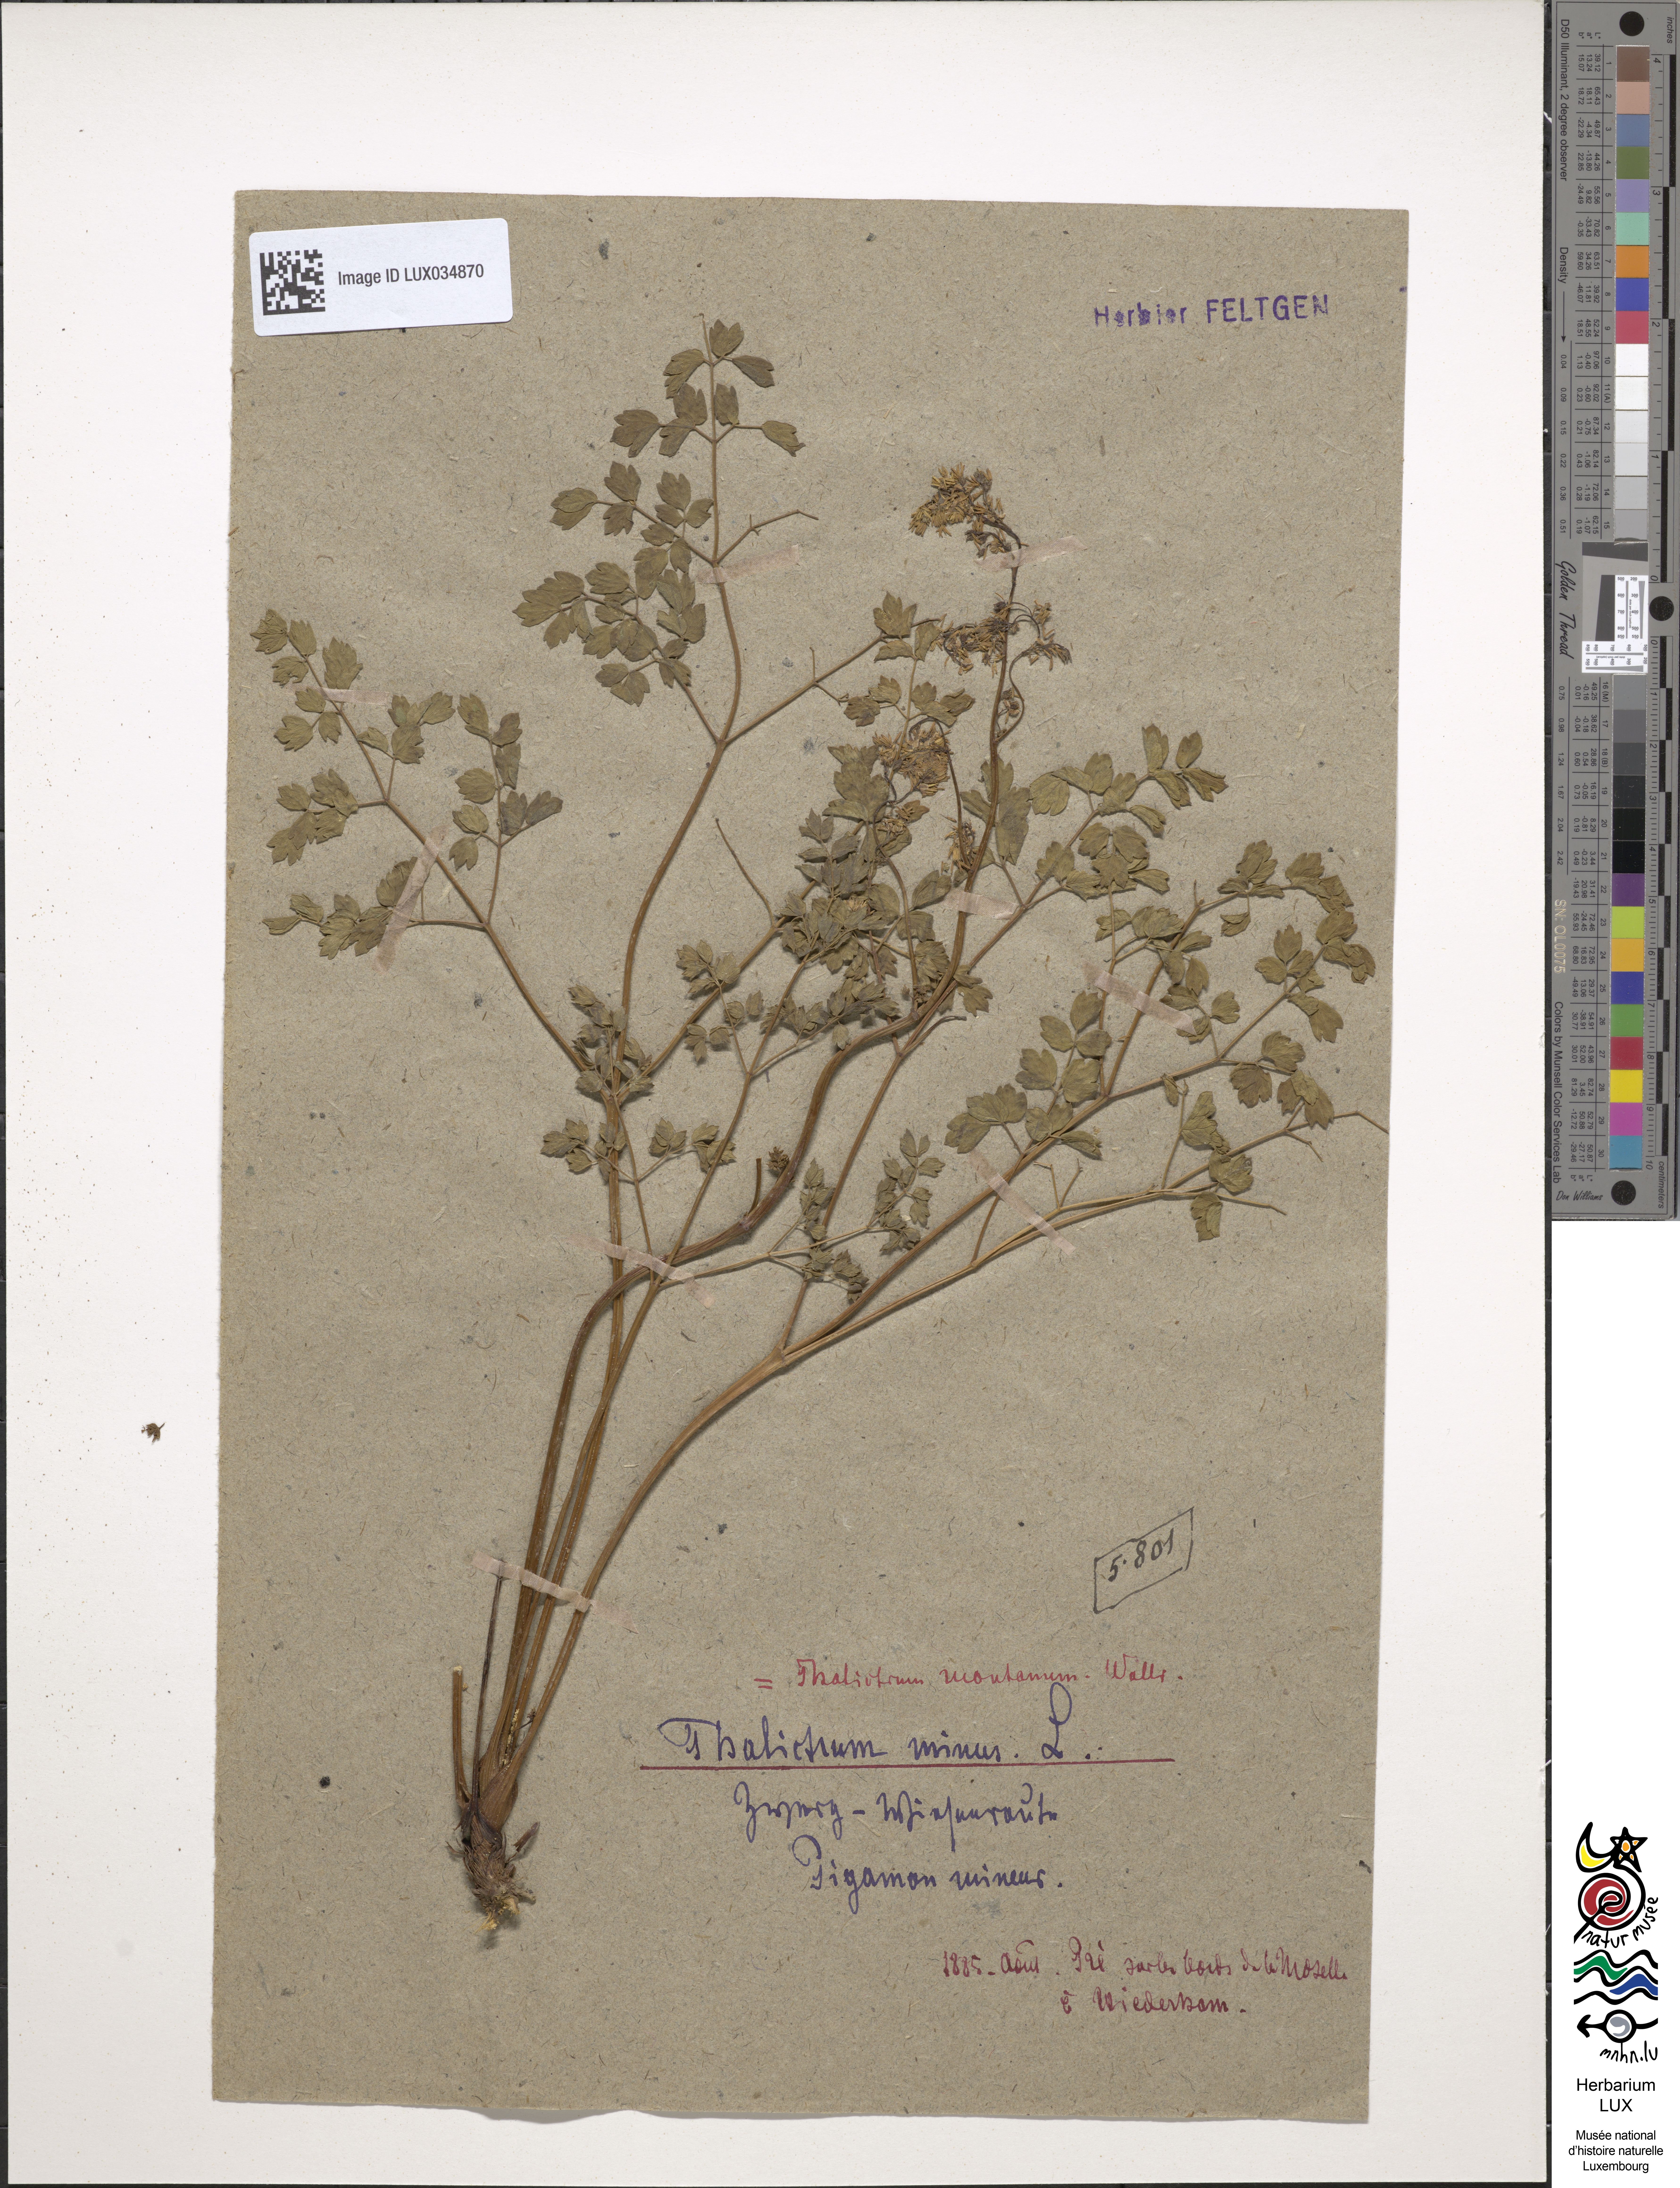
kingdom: Plantae
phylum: Tracheophyta
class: Magnoliopsida
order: Ranunculales
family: Ranunculaceae
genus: Thalictrum
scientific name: Thalictrum minus
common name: Lesser meadow-rue
